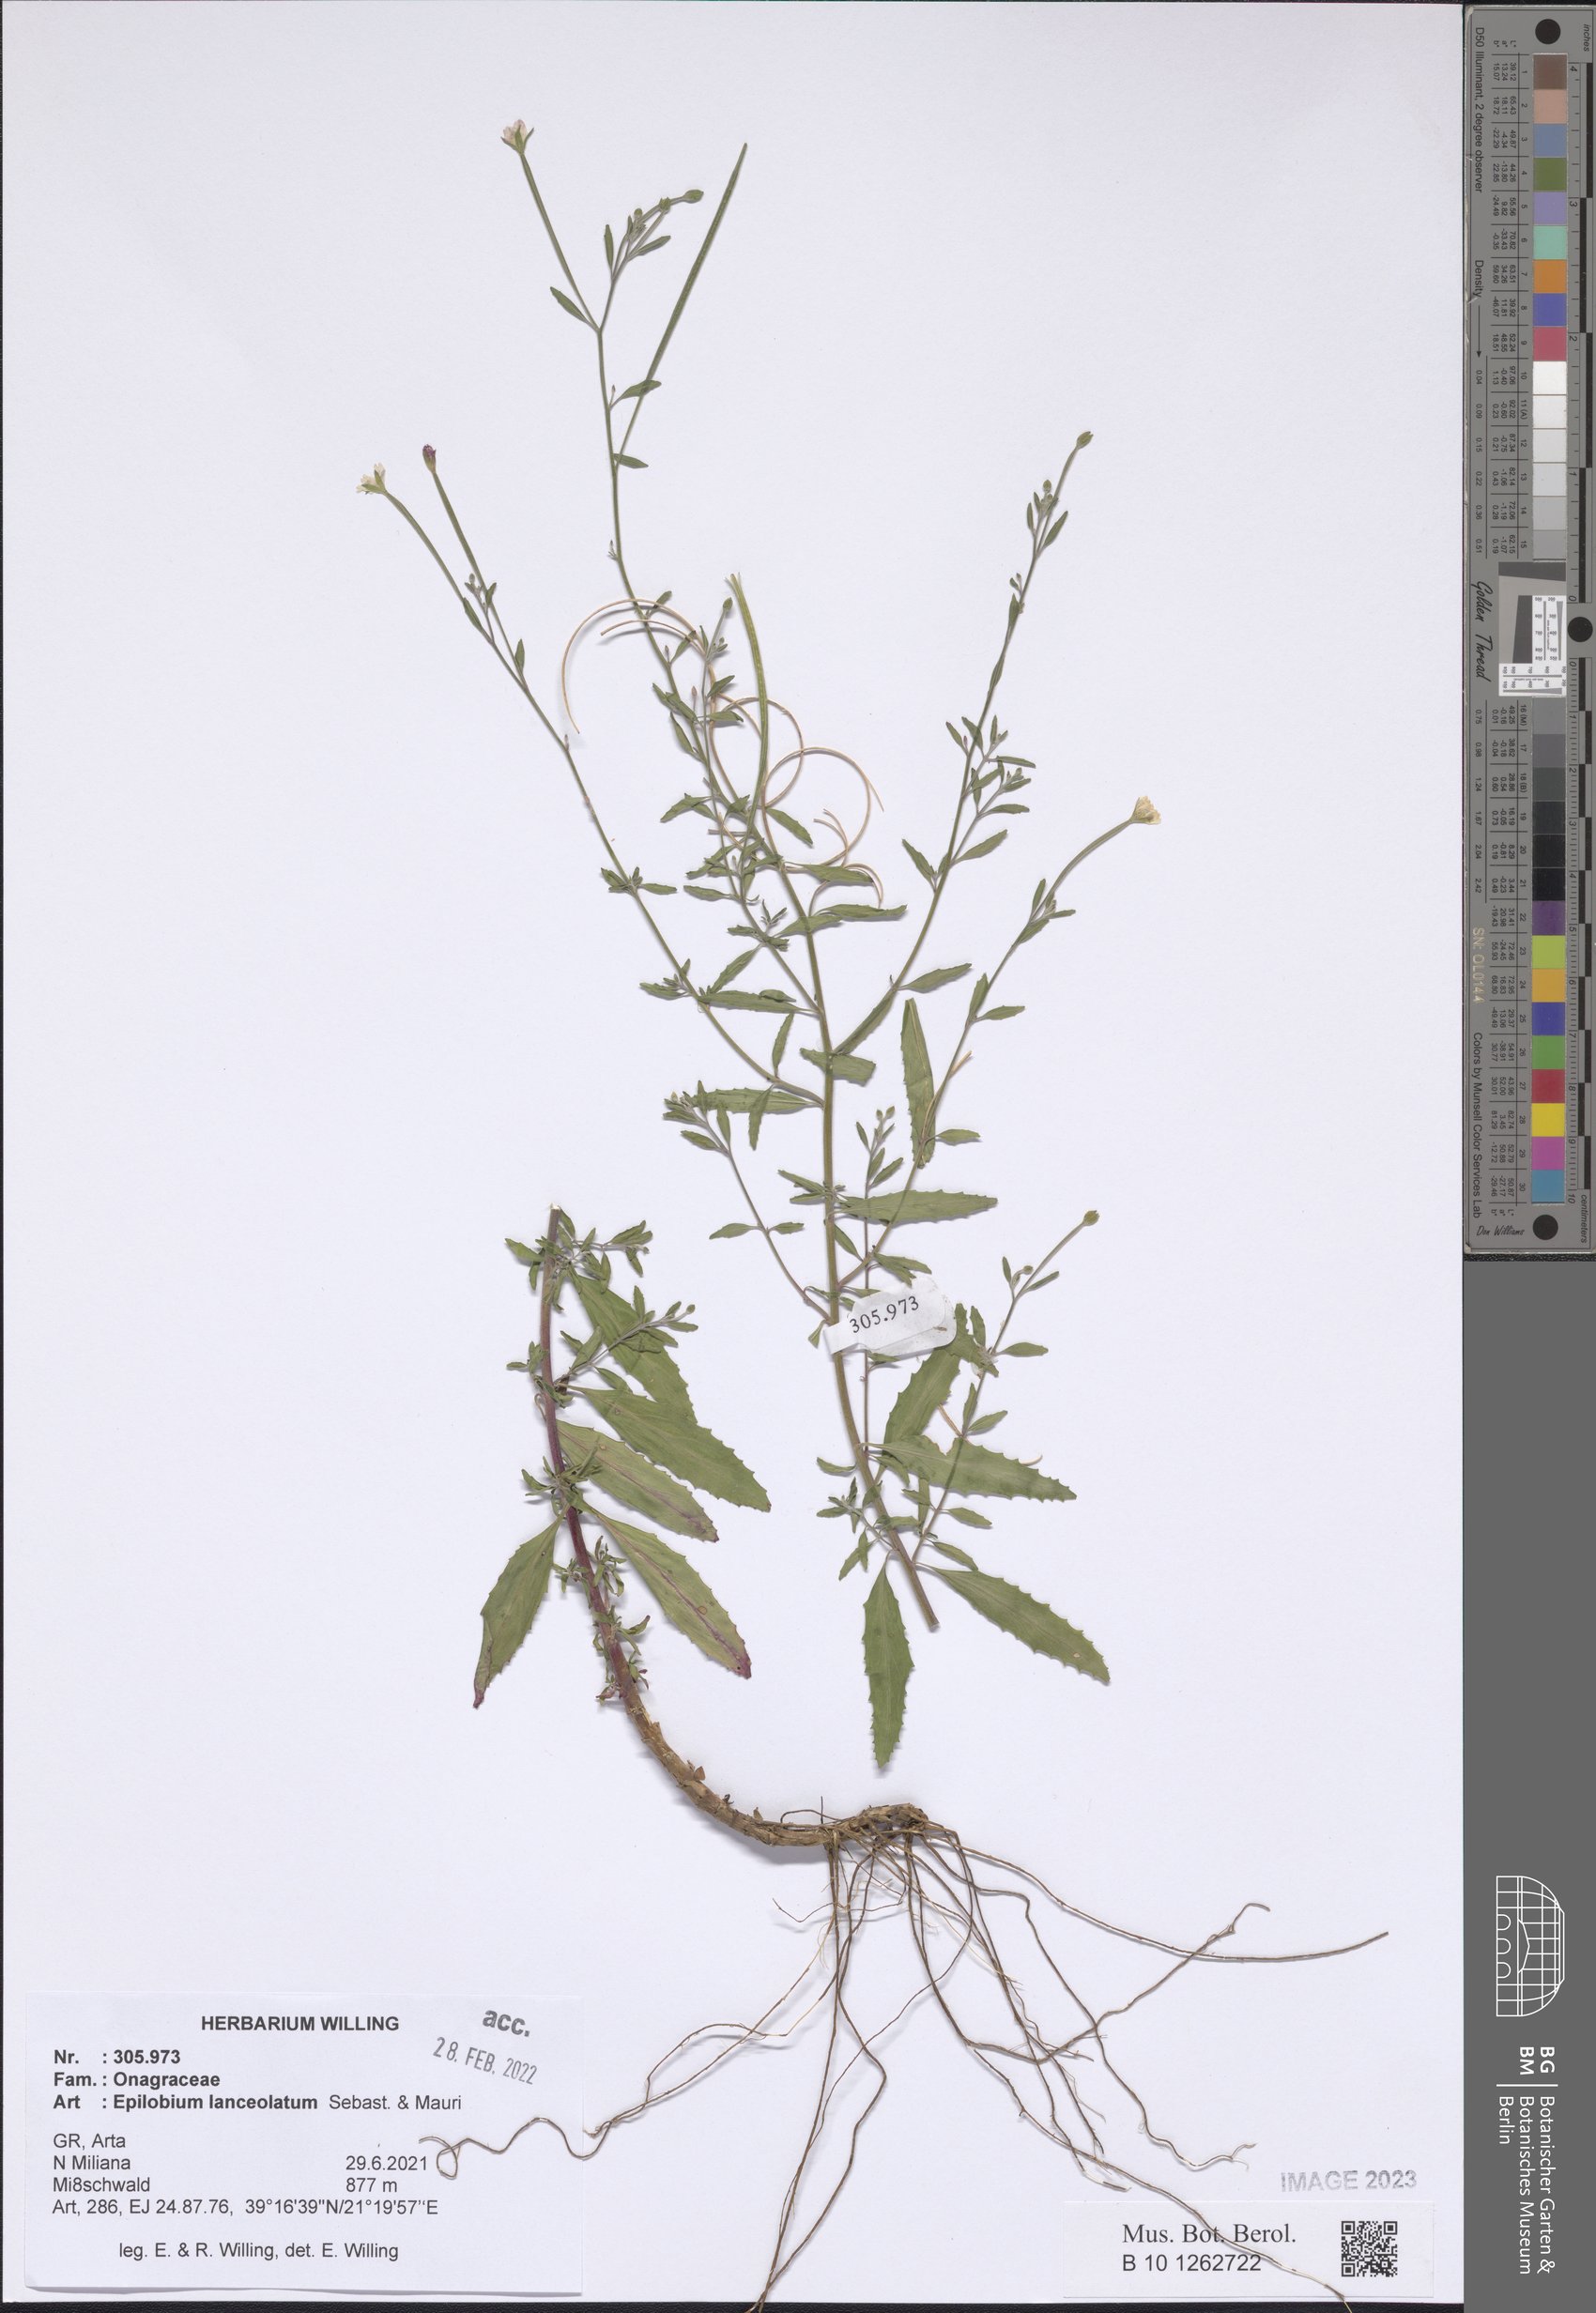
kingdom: Plantae
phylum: Tracheophyta
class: Magnoliopsida
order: Myrtales
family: Onagraceae
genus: Epilobium
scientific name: Epilobium lanceolatum
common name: Spear-leaved willowherb
